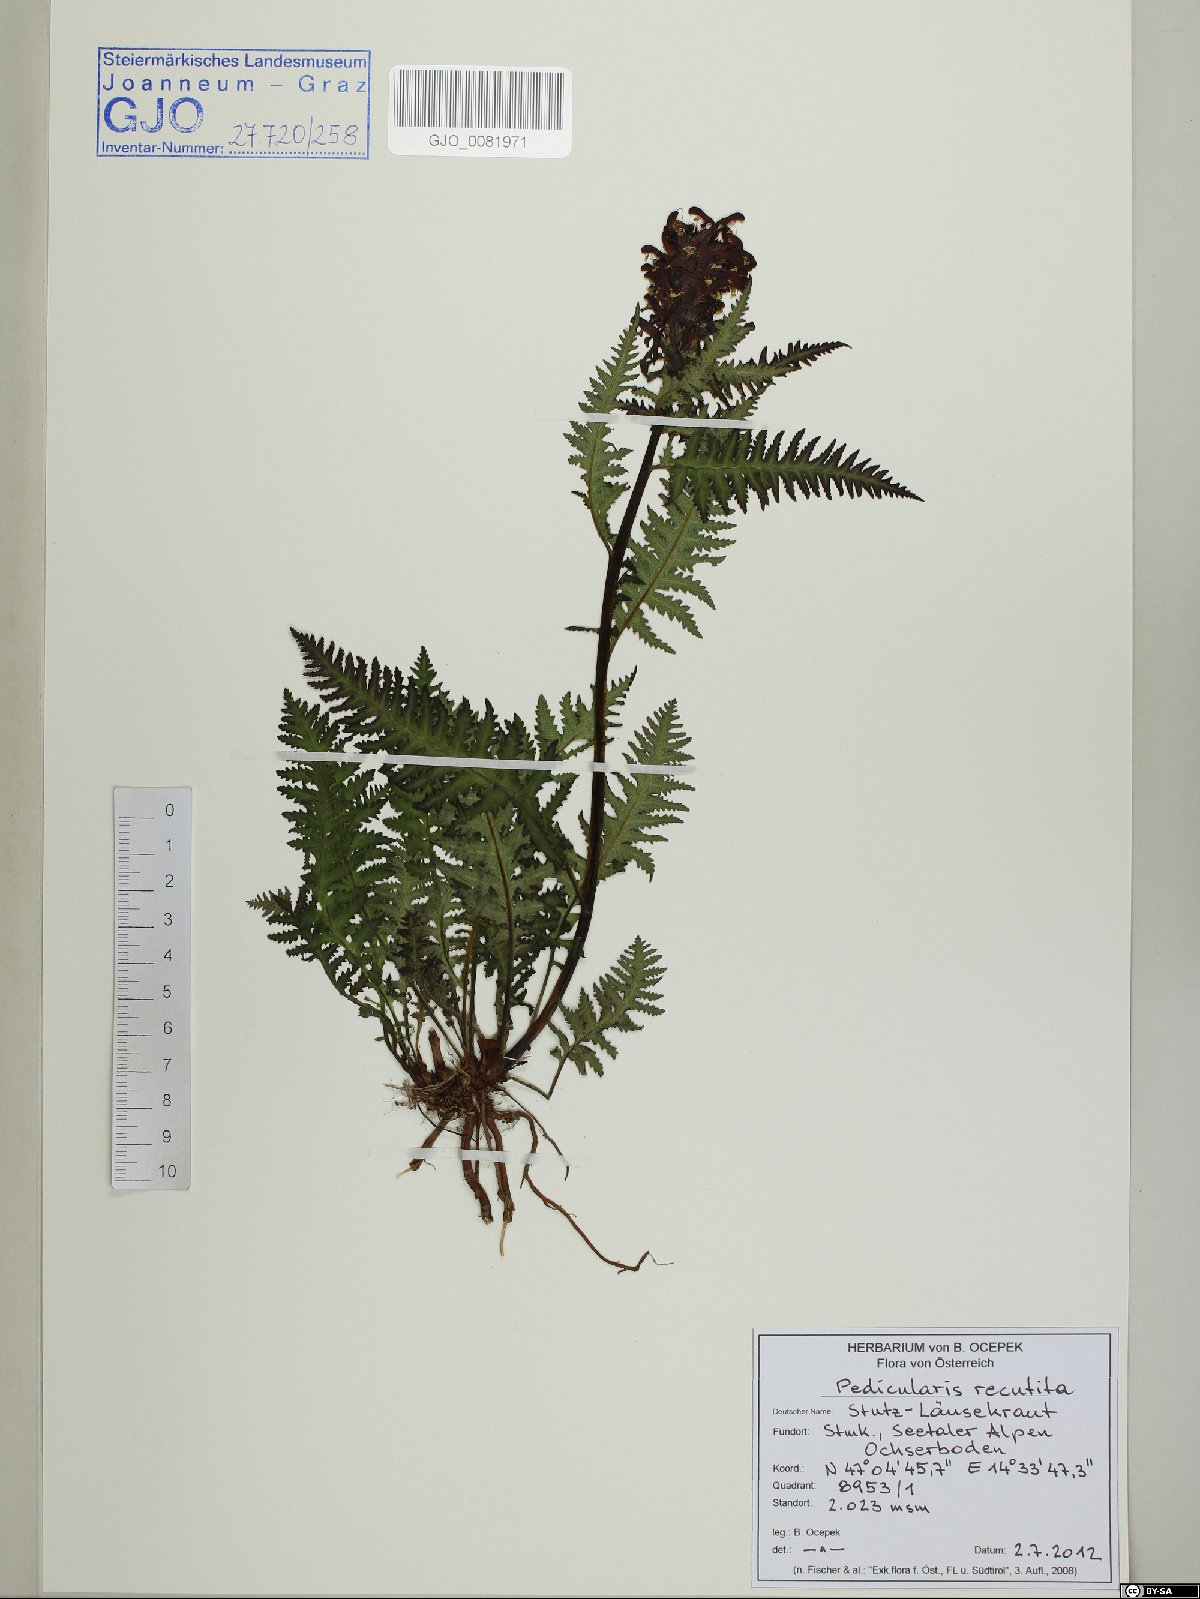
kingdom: Plantae
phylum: Tracheophyta
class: Magnoliopsida
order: Lamiales
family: Orobanchaceae
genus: Pedicularis
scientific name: Pedicularis recutita
